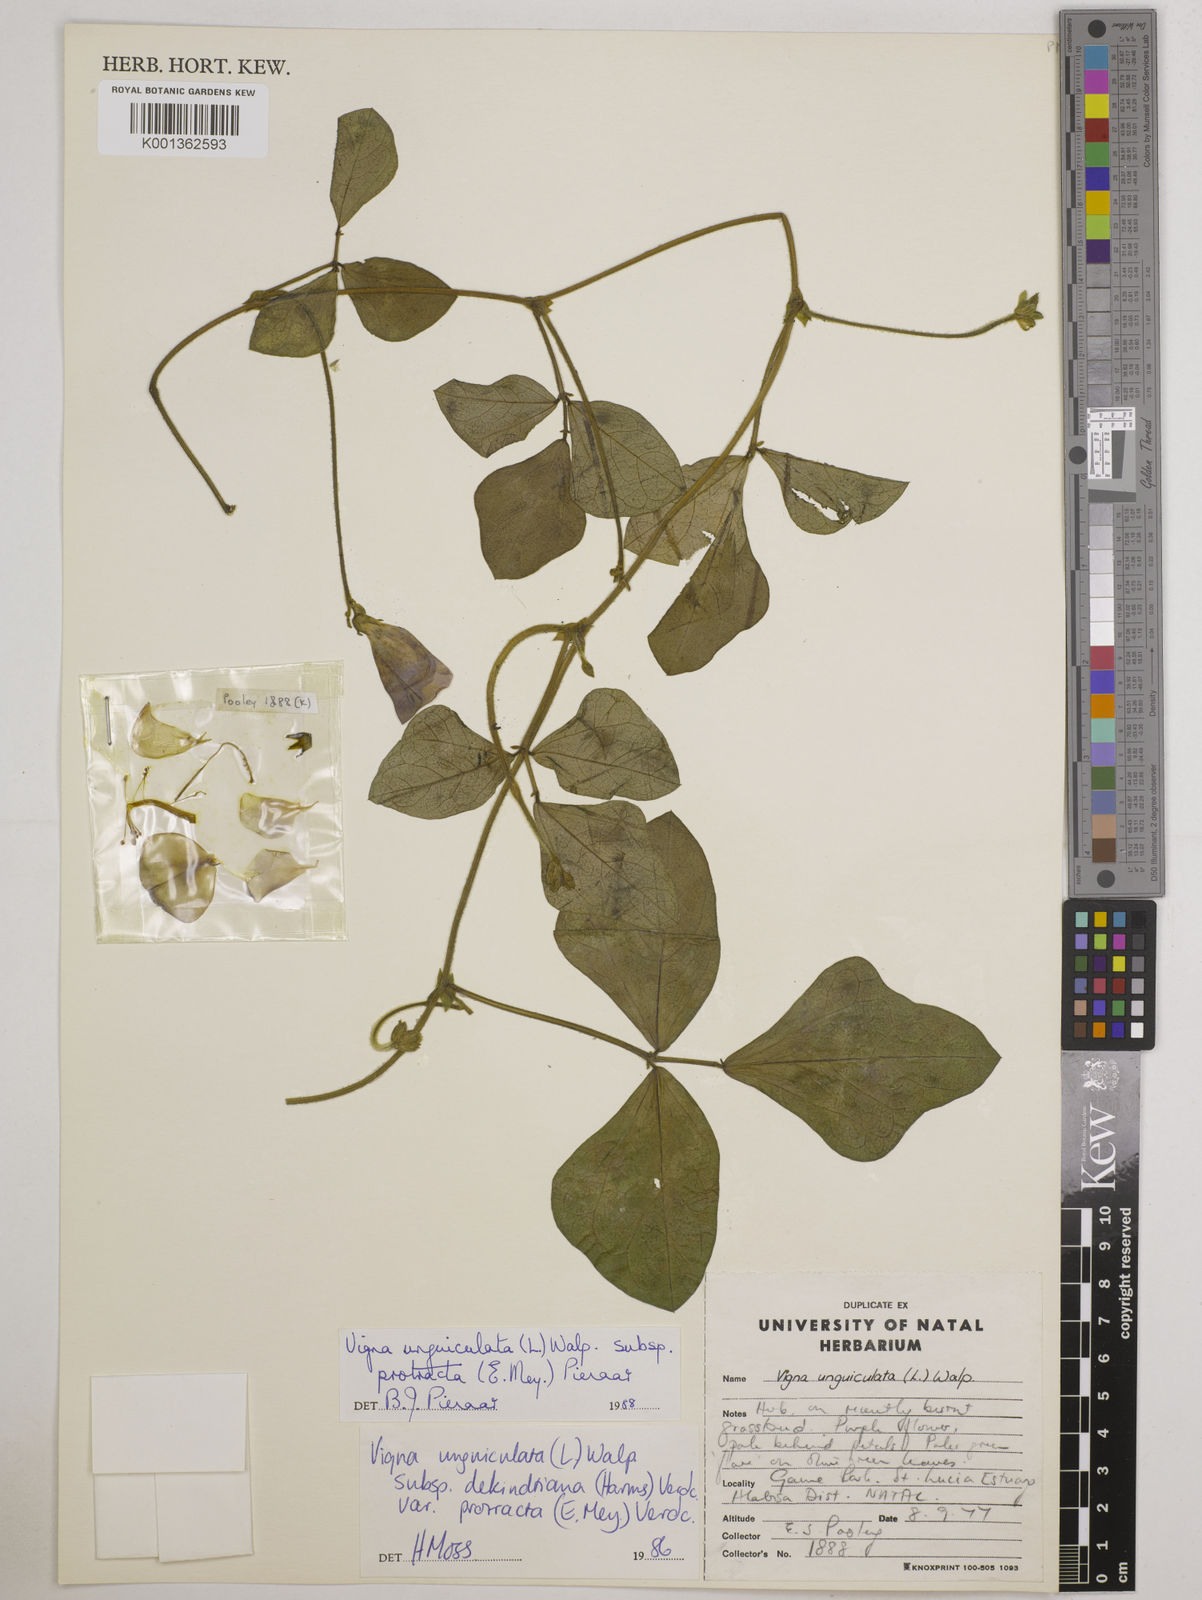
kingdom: Plantae
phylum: Tracheophyta
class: Magnoliopsida
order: Fabales
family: Fabaceae
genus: Vigna
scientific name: Vigna unguiculata
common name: Cowpea
